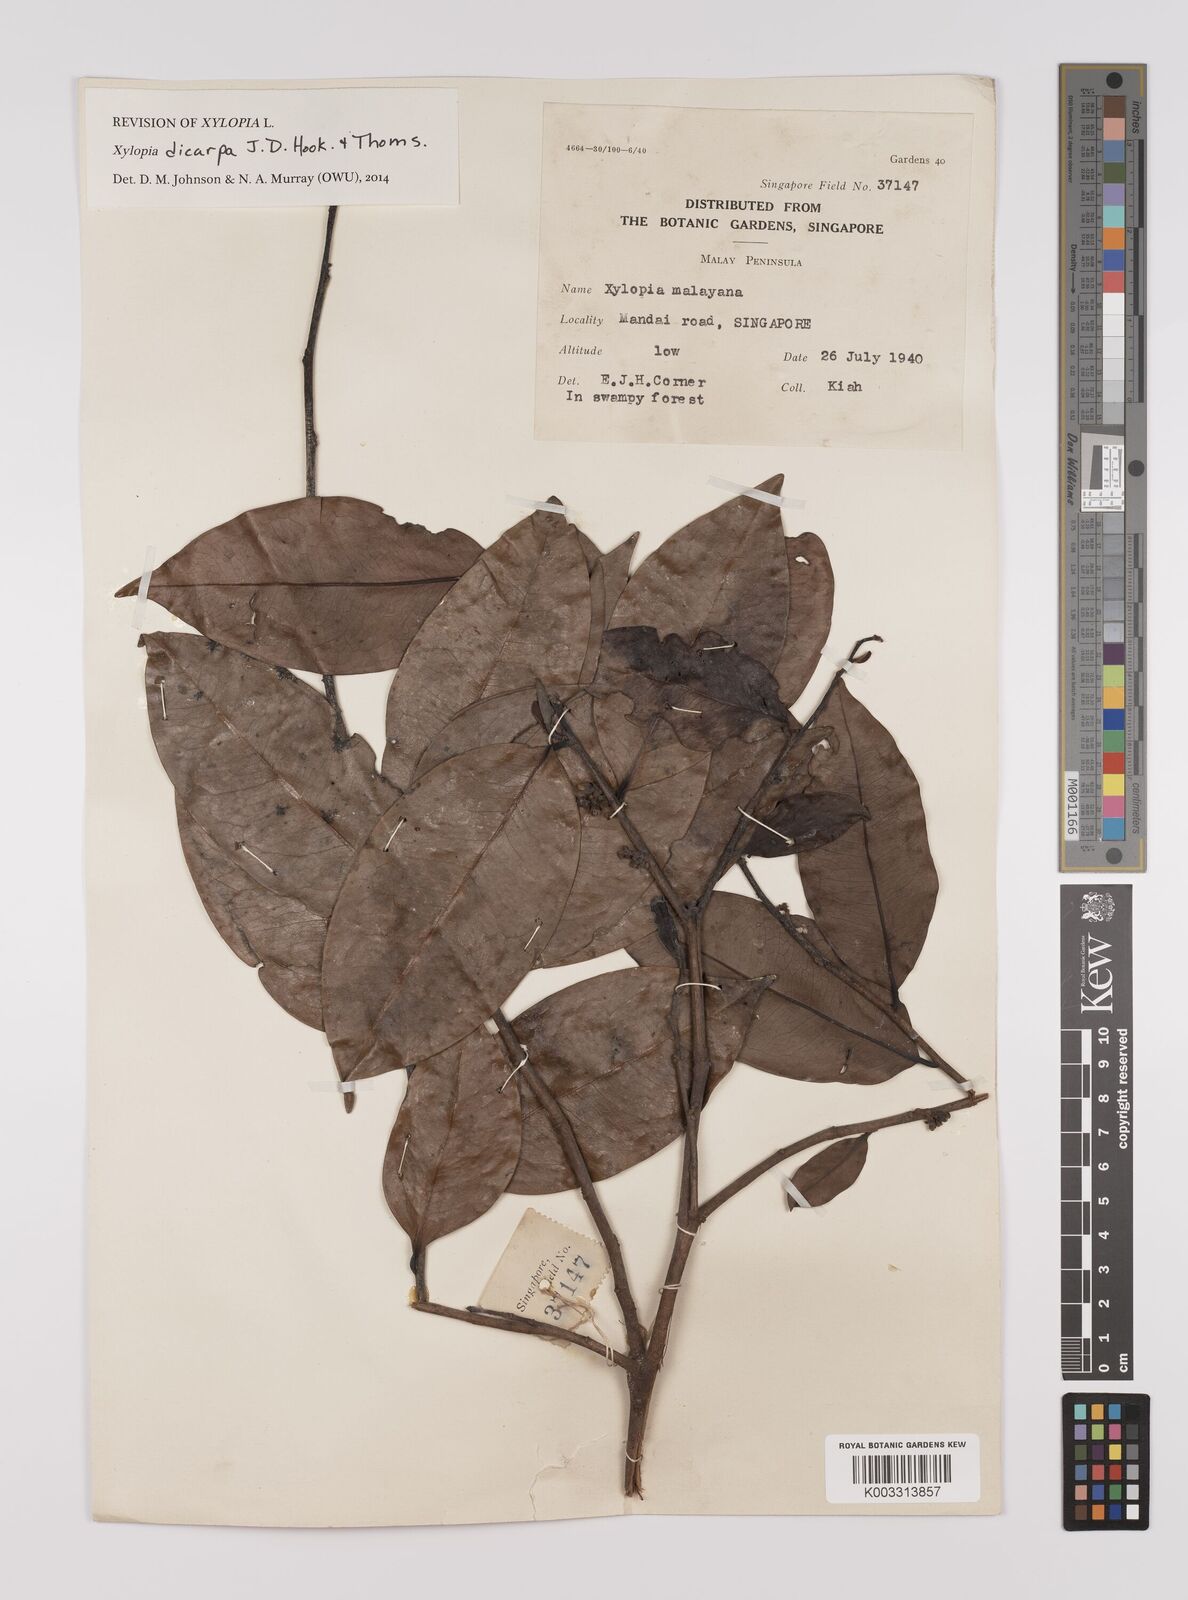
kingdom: Plantae
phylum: Tracheophyta
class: Magnoliopsida
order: Magnoliales
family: Annonaceae
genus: Xylopia
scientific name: Xylopia malayana
